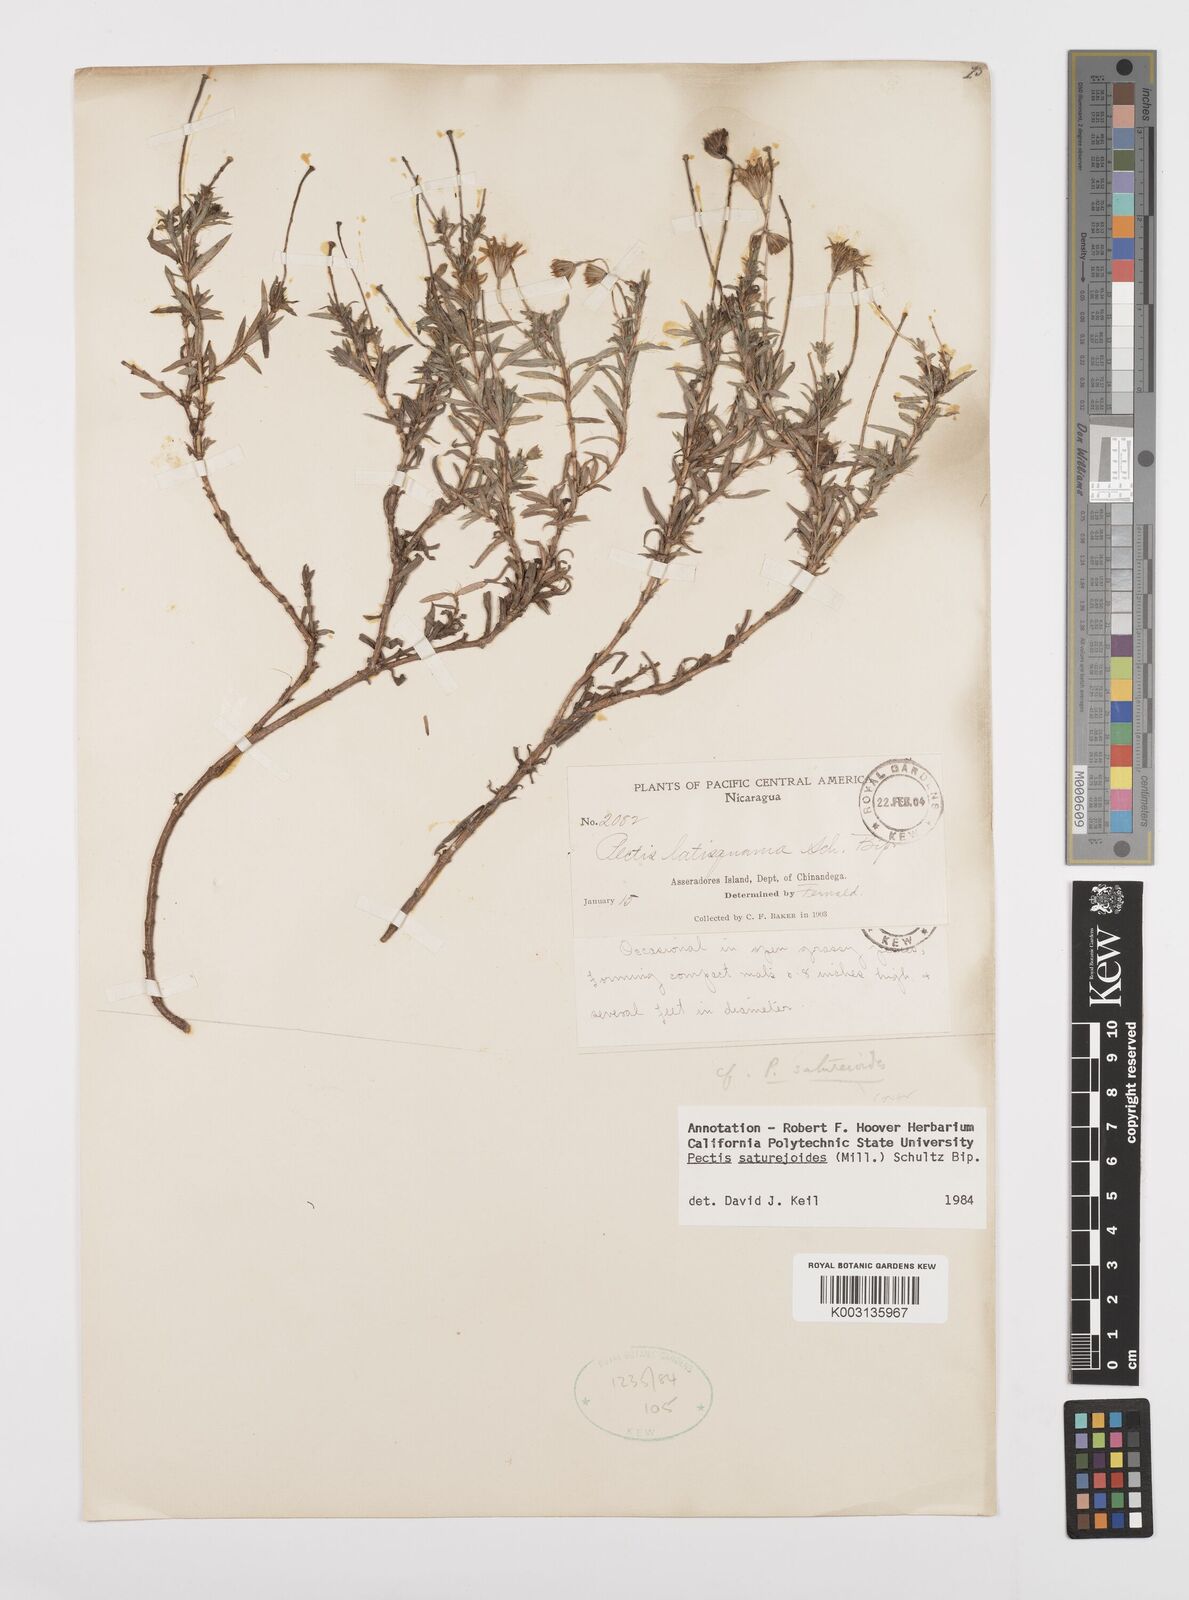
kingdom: Plantae
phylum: Tracheophyta
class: Magnoliopsida
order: Asterales
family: Asteraceae
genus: Pectis
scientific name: Pectis saturejoides
